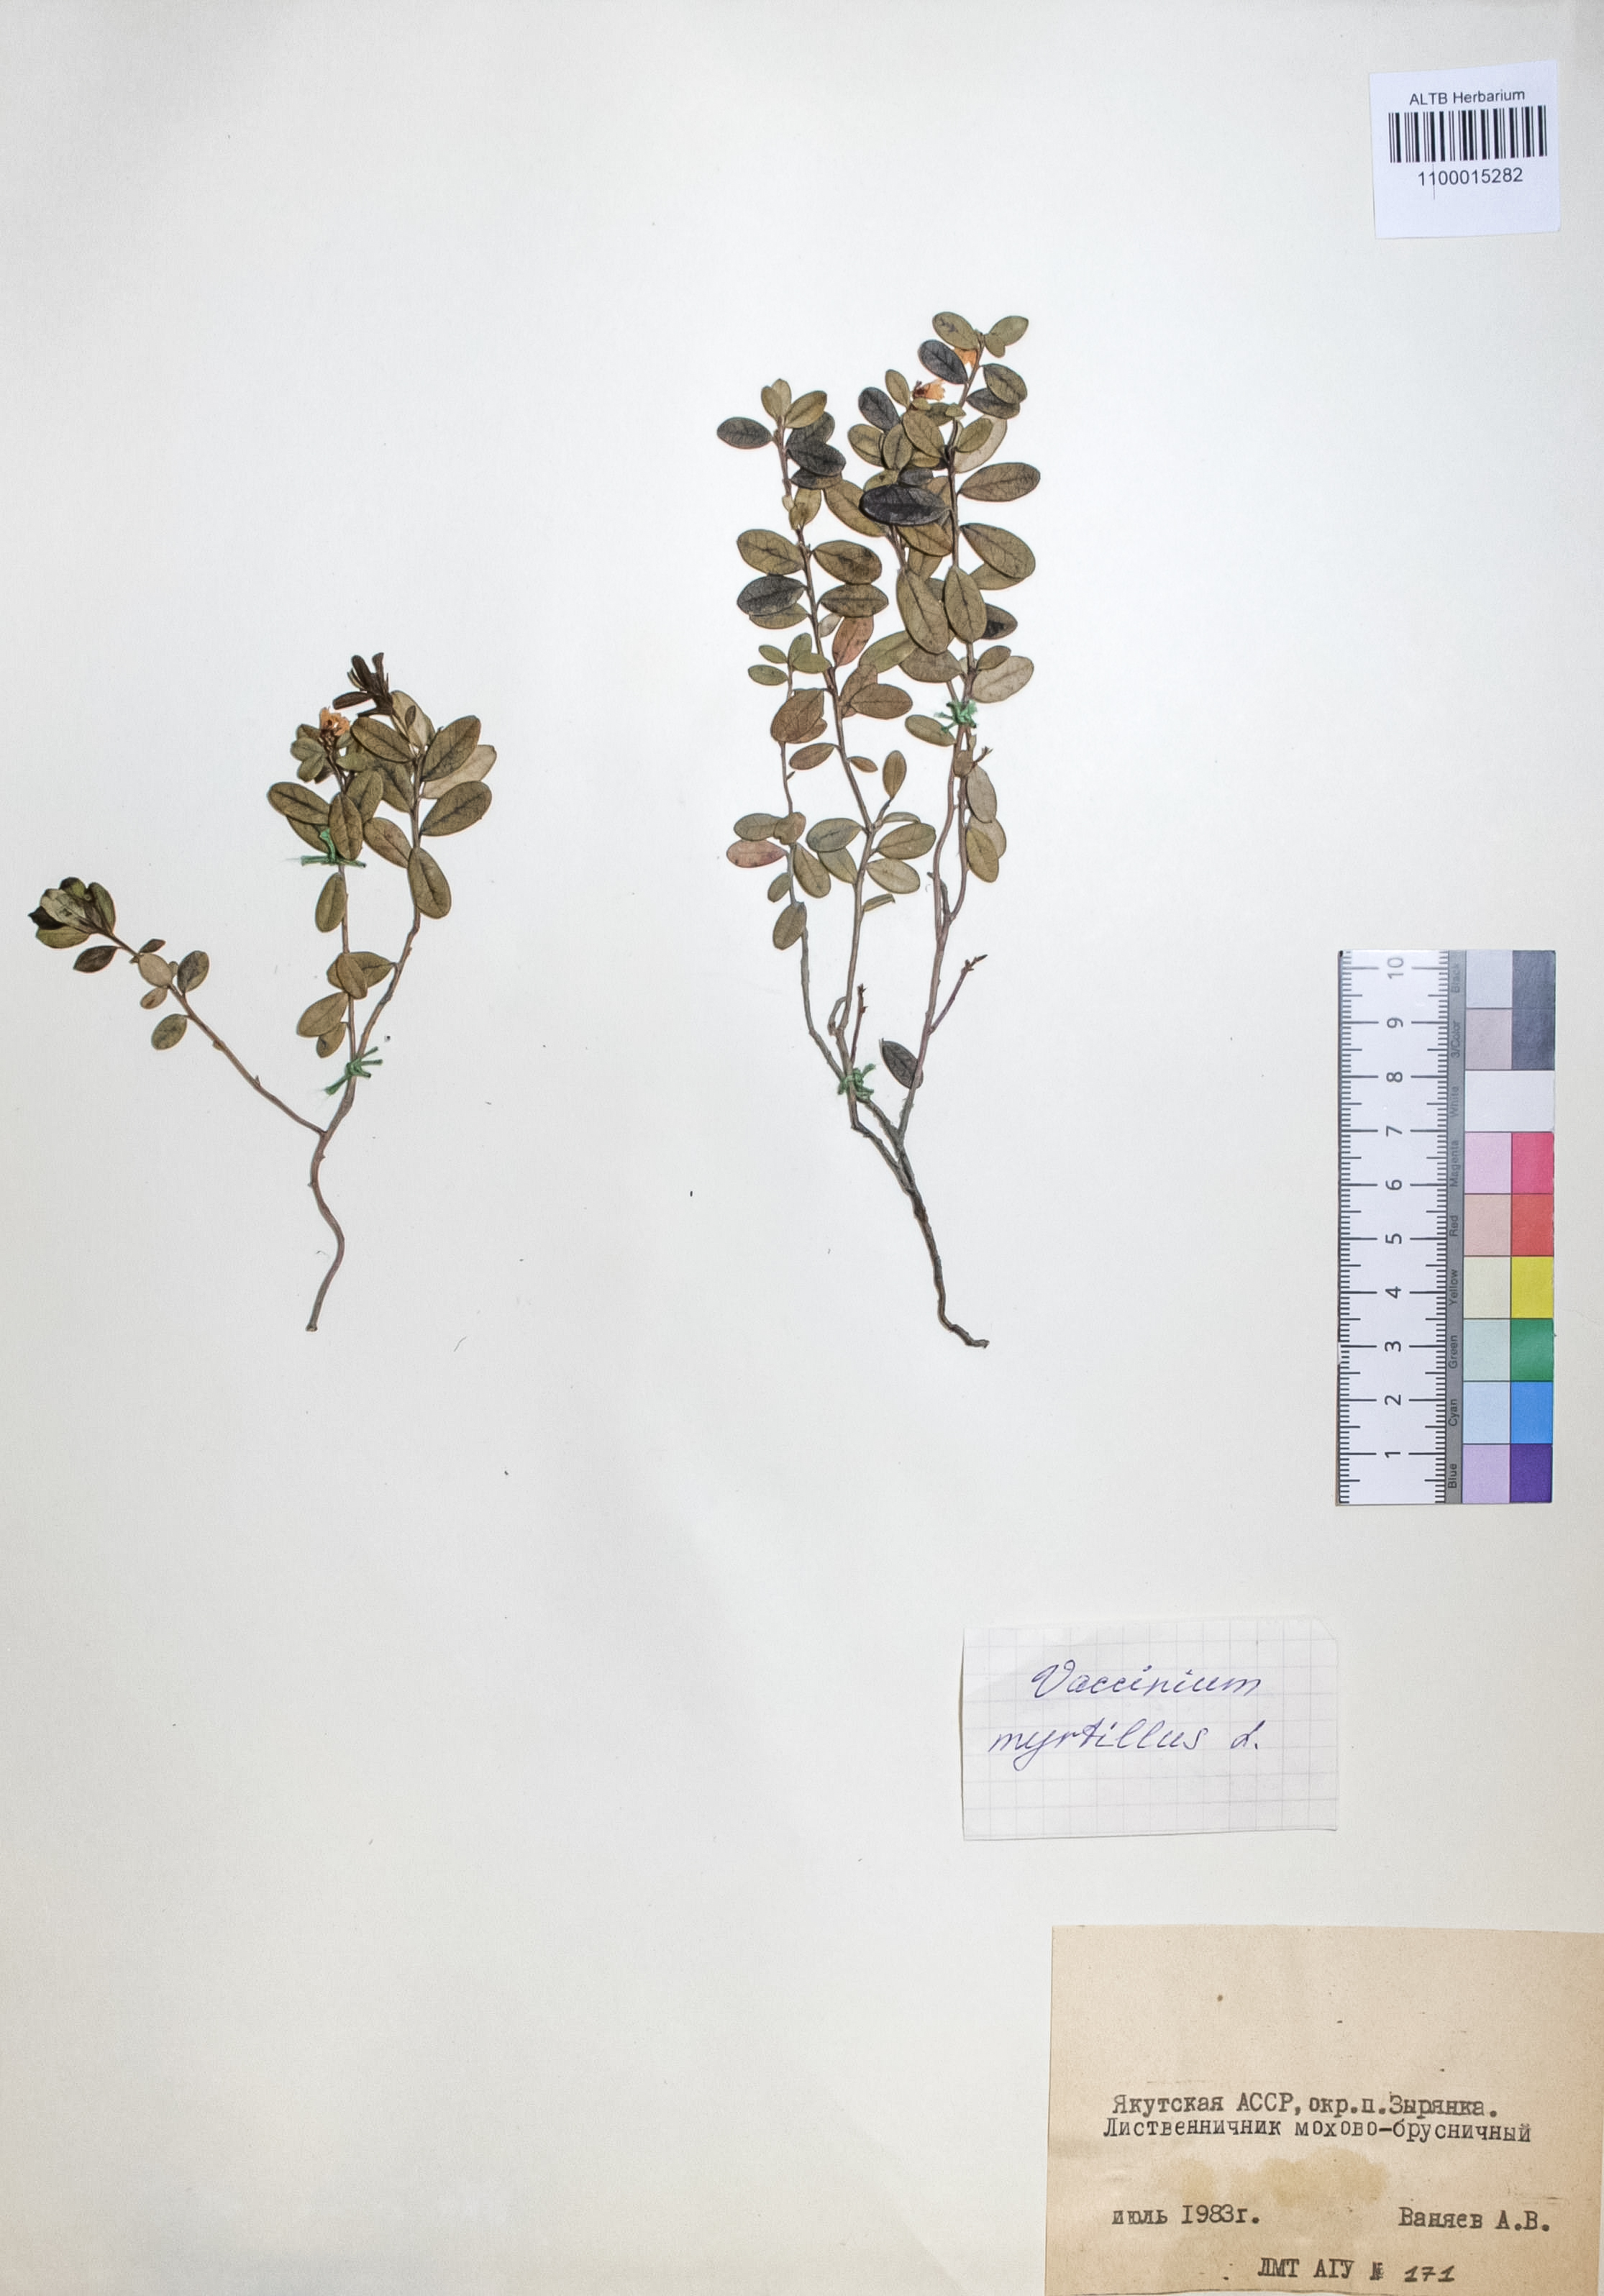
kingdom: Plantae
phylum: Tracheophyta
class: Magnoliopsida
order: Ericales
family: Ericaceae
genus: Vaccinium
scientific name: Vaccinium vitis-idaea
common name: Cowberry
